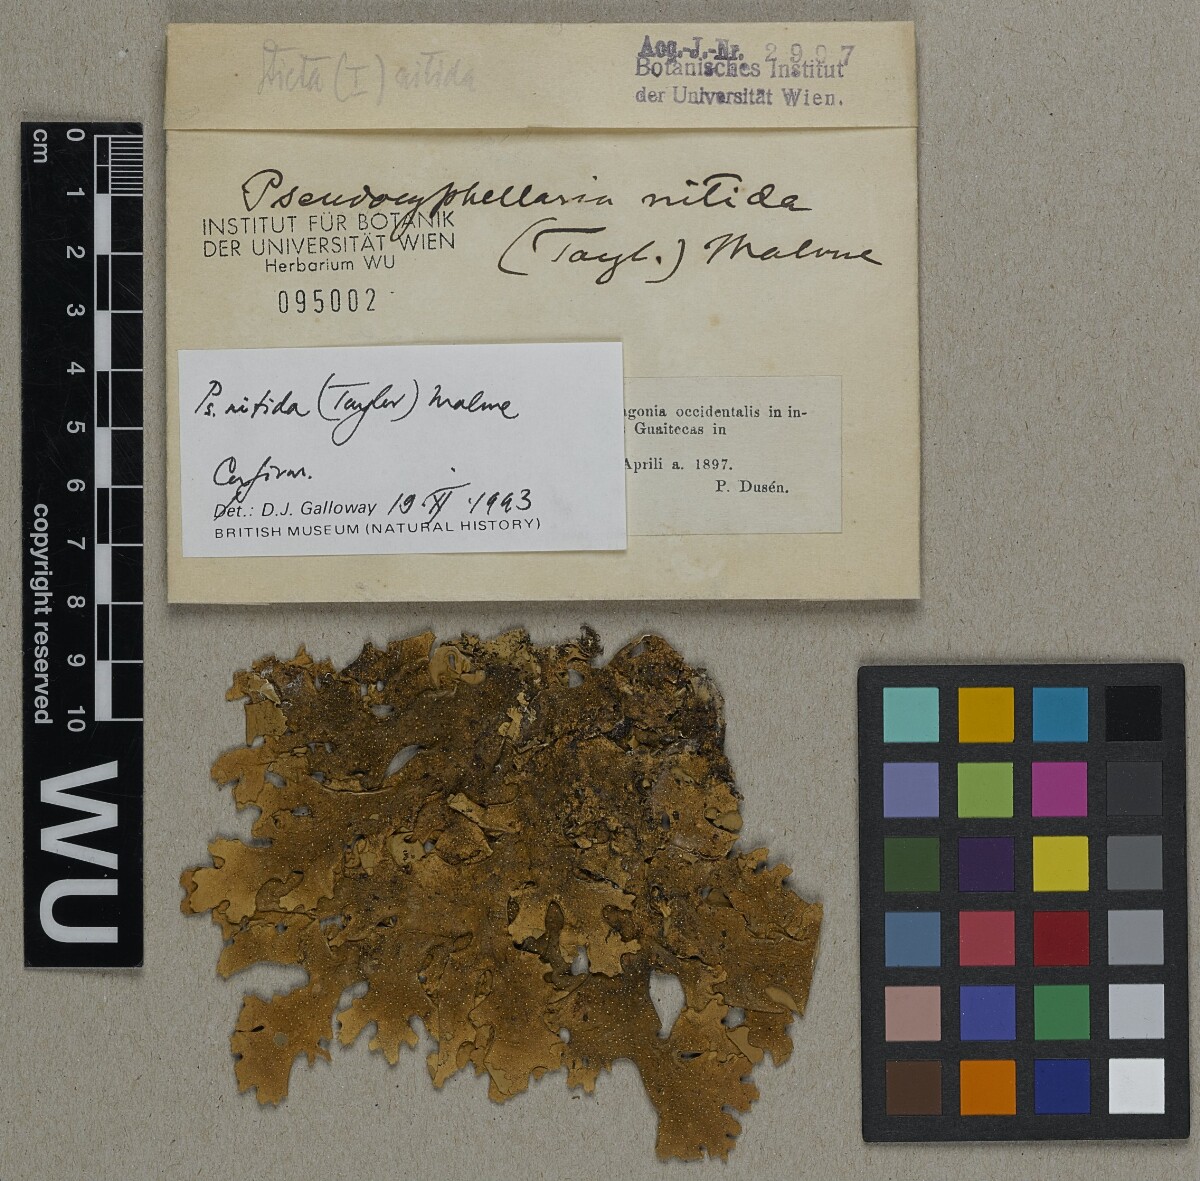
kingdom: Fungi
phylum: Ascomycota
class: Lecanoromycetes
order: Peltigerales
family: Lobariaceae
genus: Pseudocyphellaria
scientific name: Pseudocyphellaria nitida
